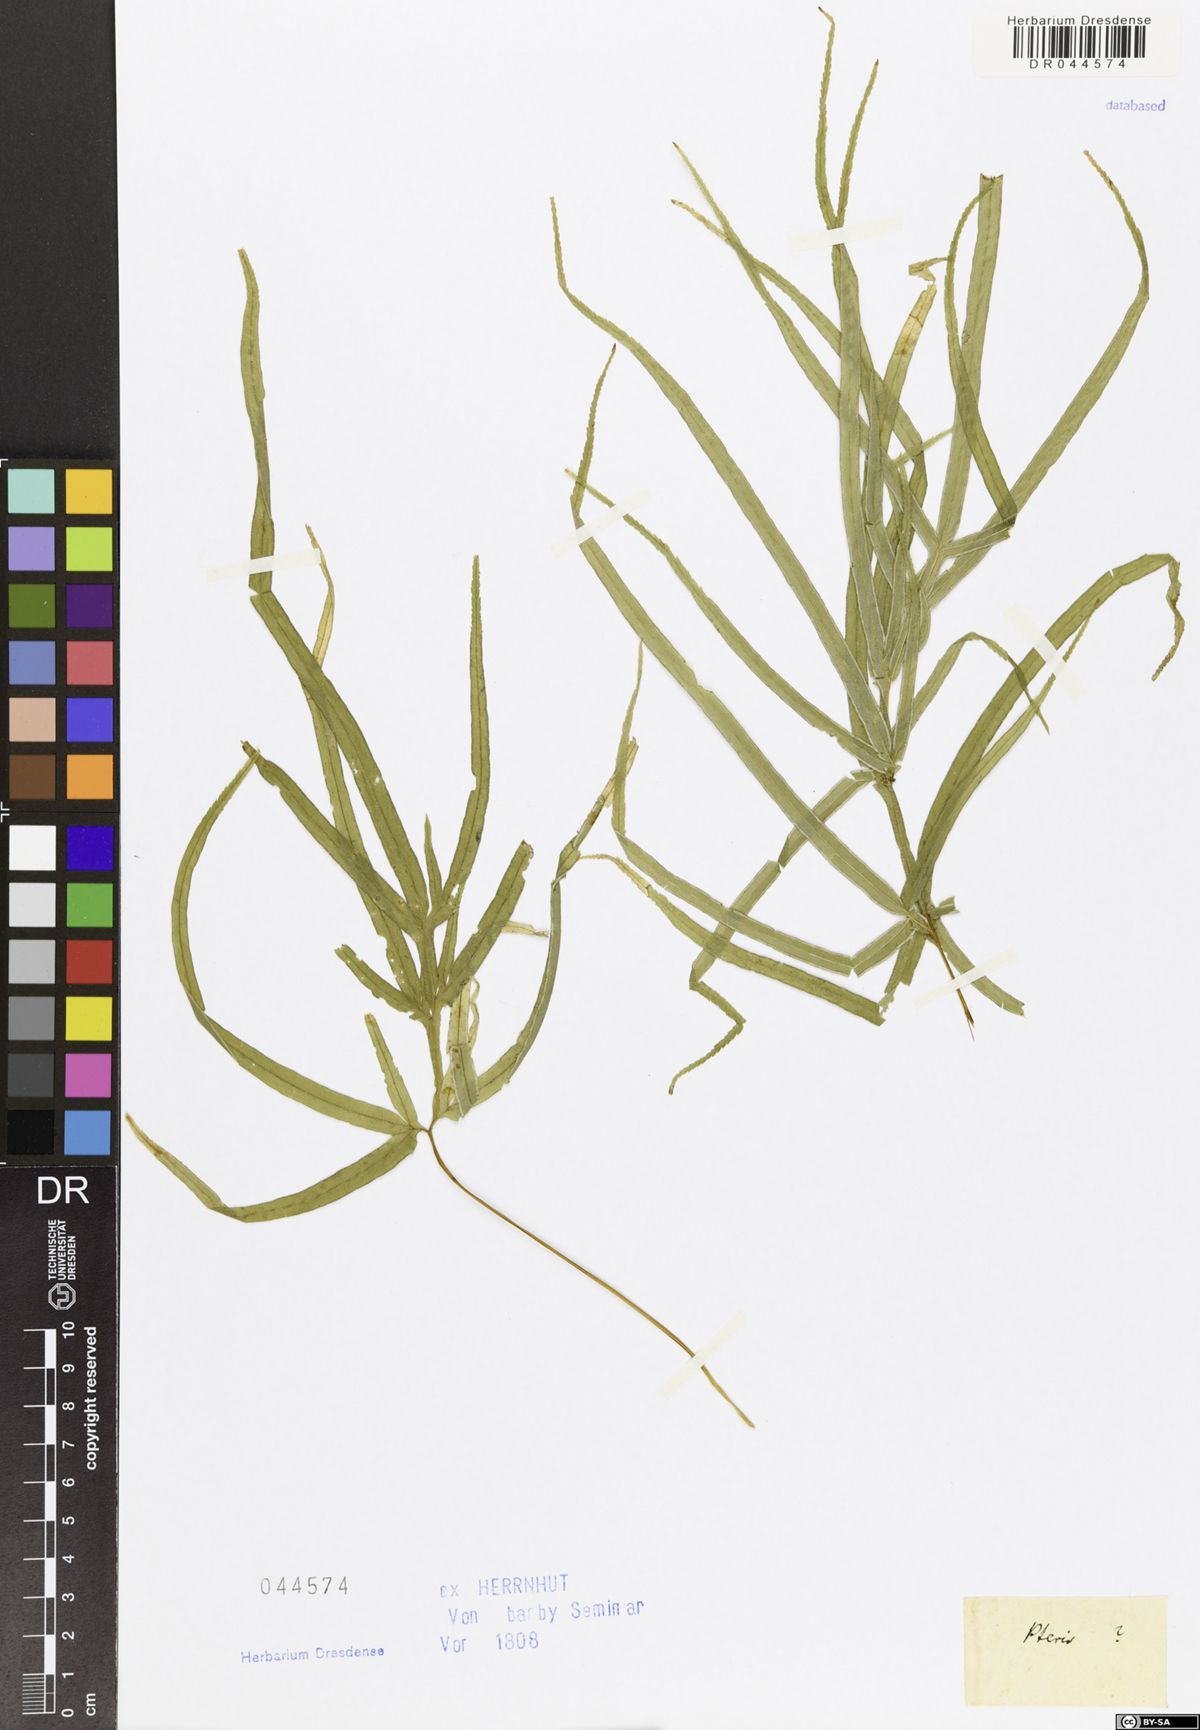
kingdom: Plantae
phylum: Tracheophyta
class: Polypodiopsida
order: Polypodiales
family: Pteridaceae
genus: Pteris
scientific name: Pteris
